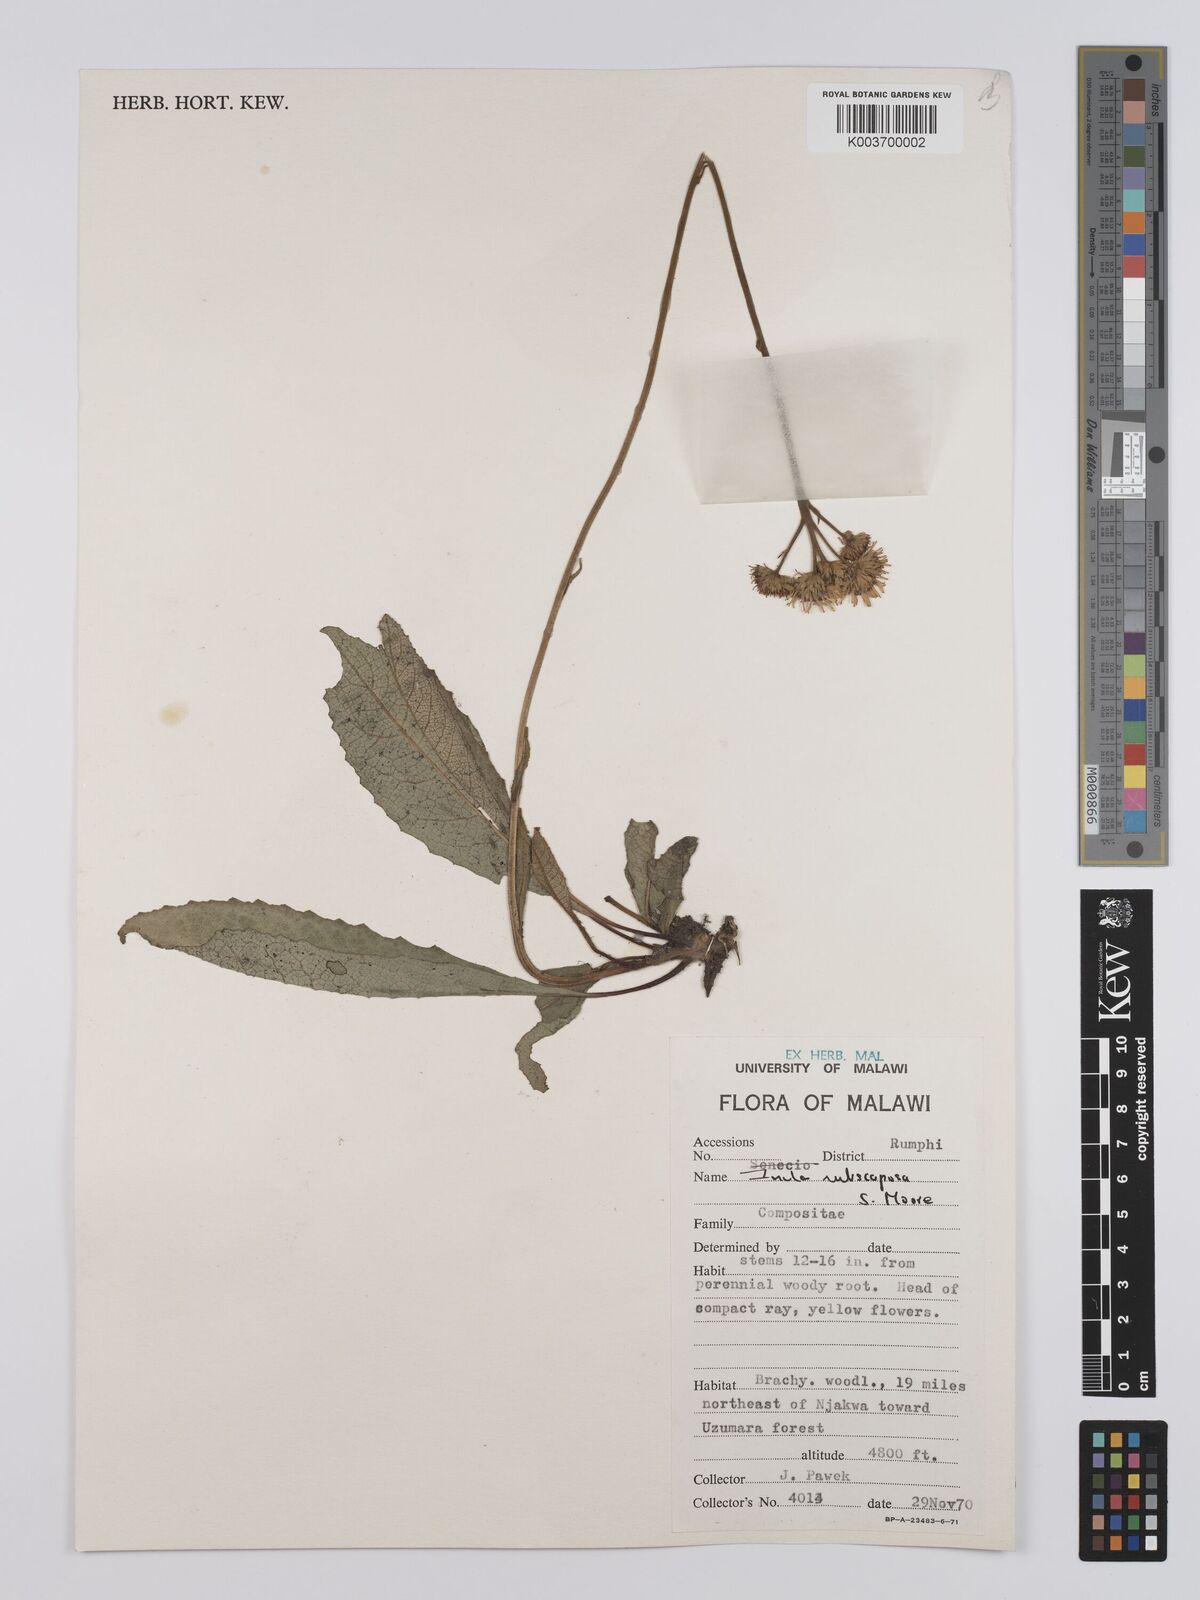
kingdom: Plantae
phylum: Tracheophyta
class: Magnoliopsida
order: Asterales
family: Asteraceae
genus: Monactinocephalus
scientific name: Monactinocephalus paniculatus
